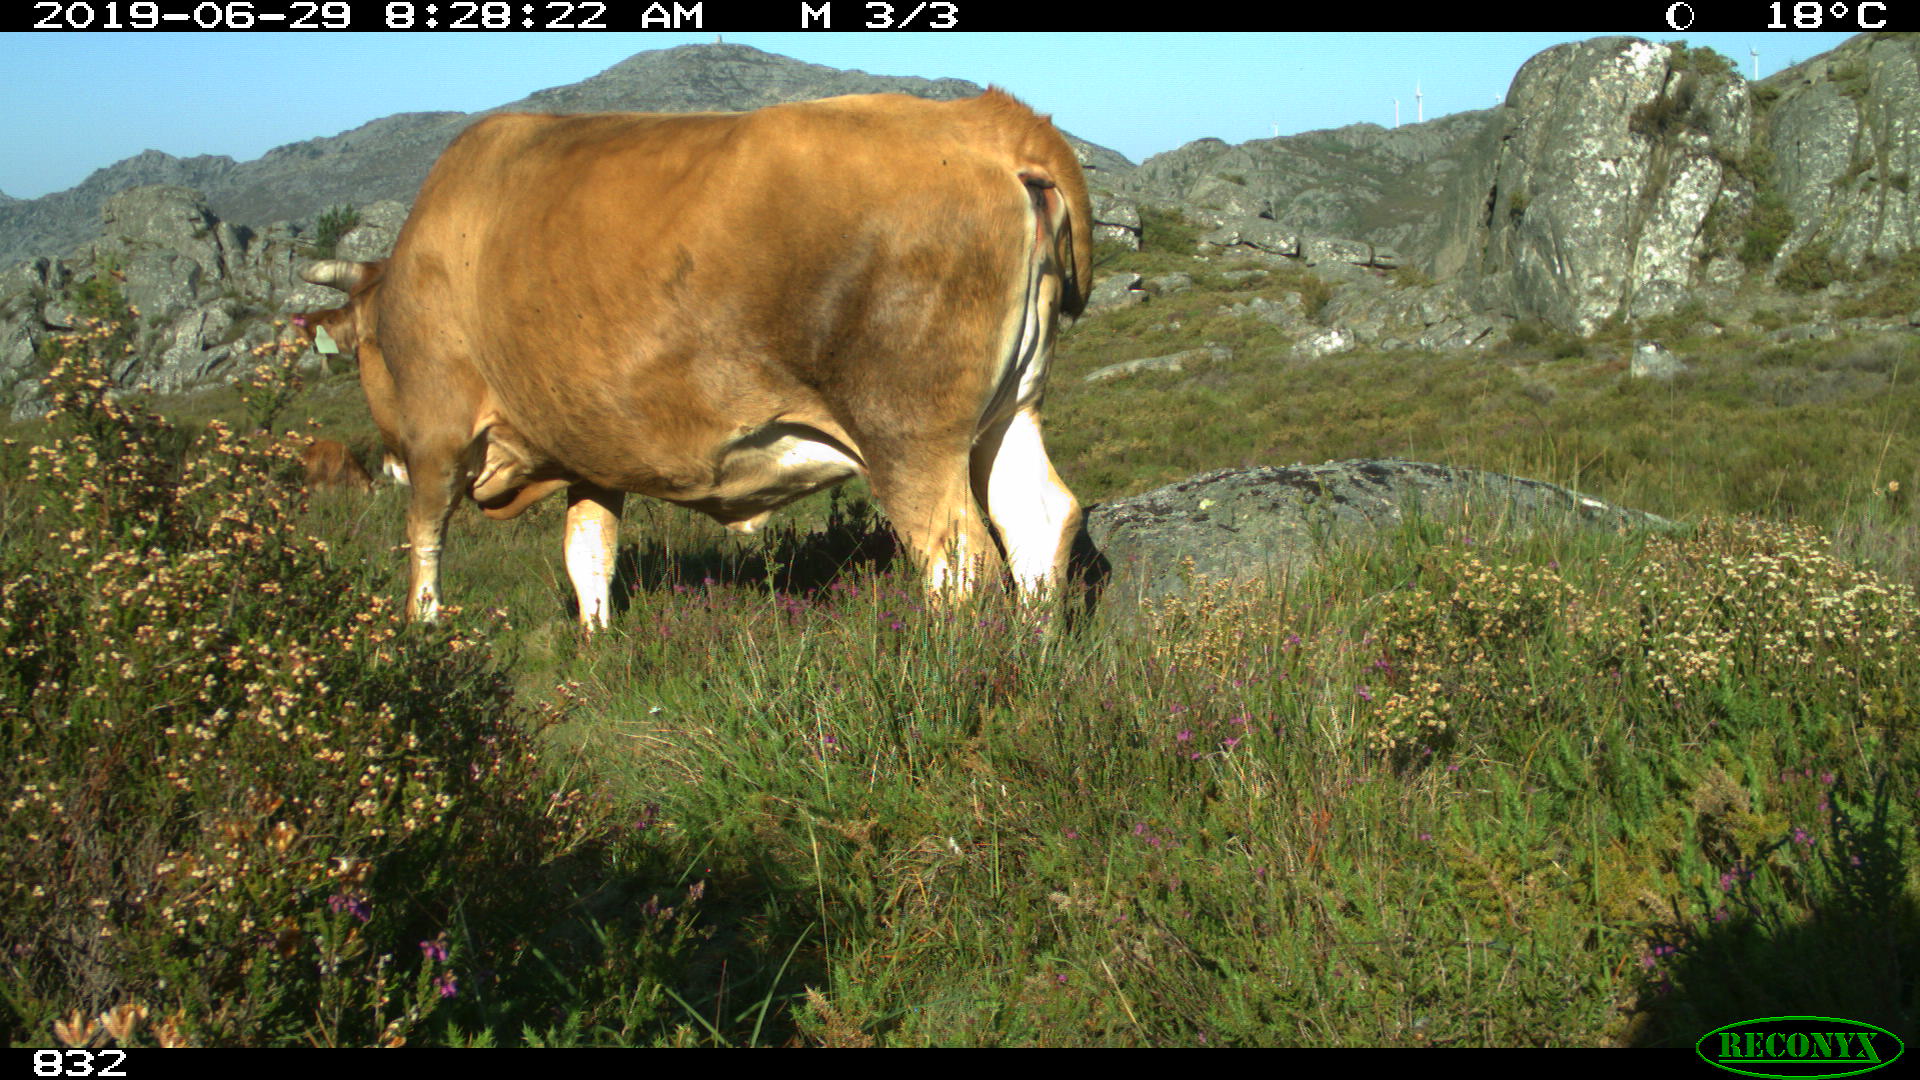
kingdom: Animalia
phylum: Chordata
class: Mammalia
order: Artiodactyla
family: Bovidae
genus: Bos
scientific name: Bos taurus
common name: Domesticated cattle
